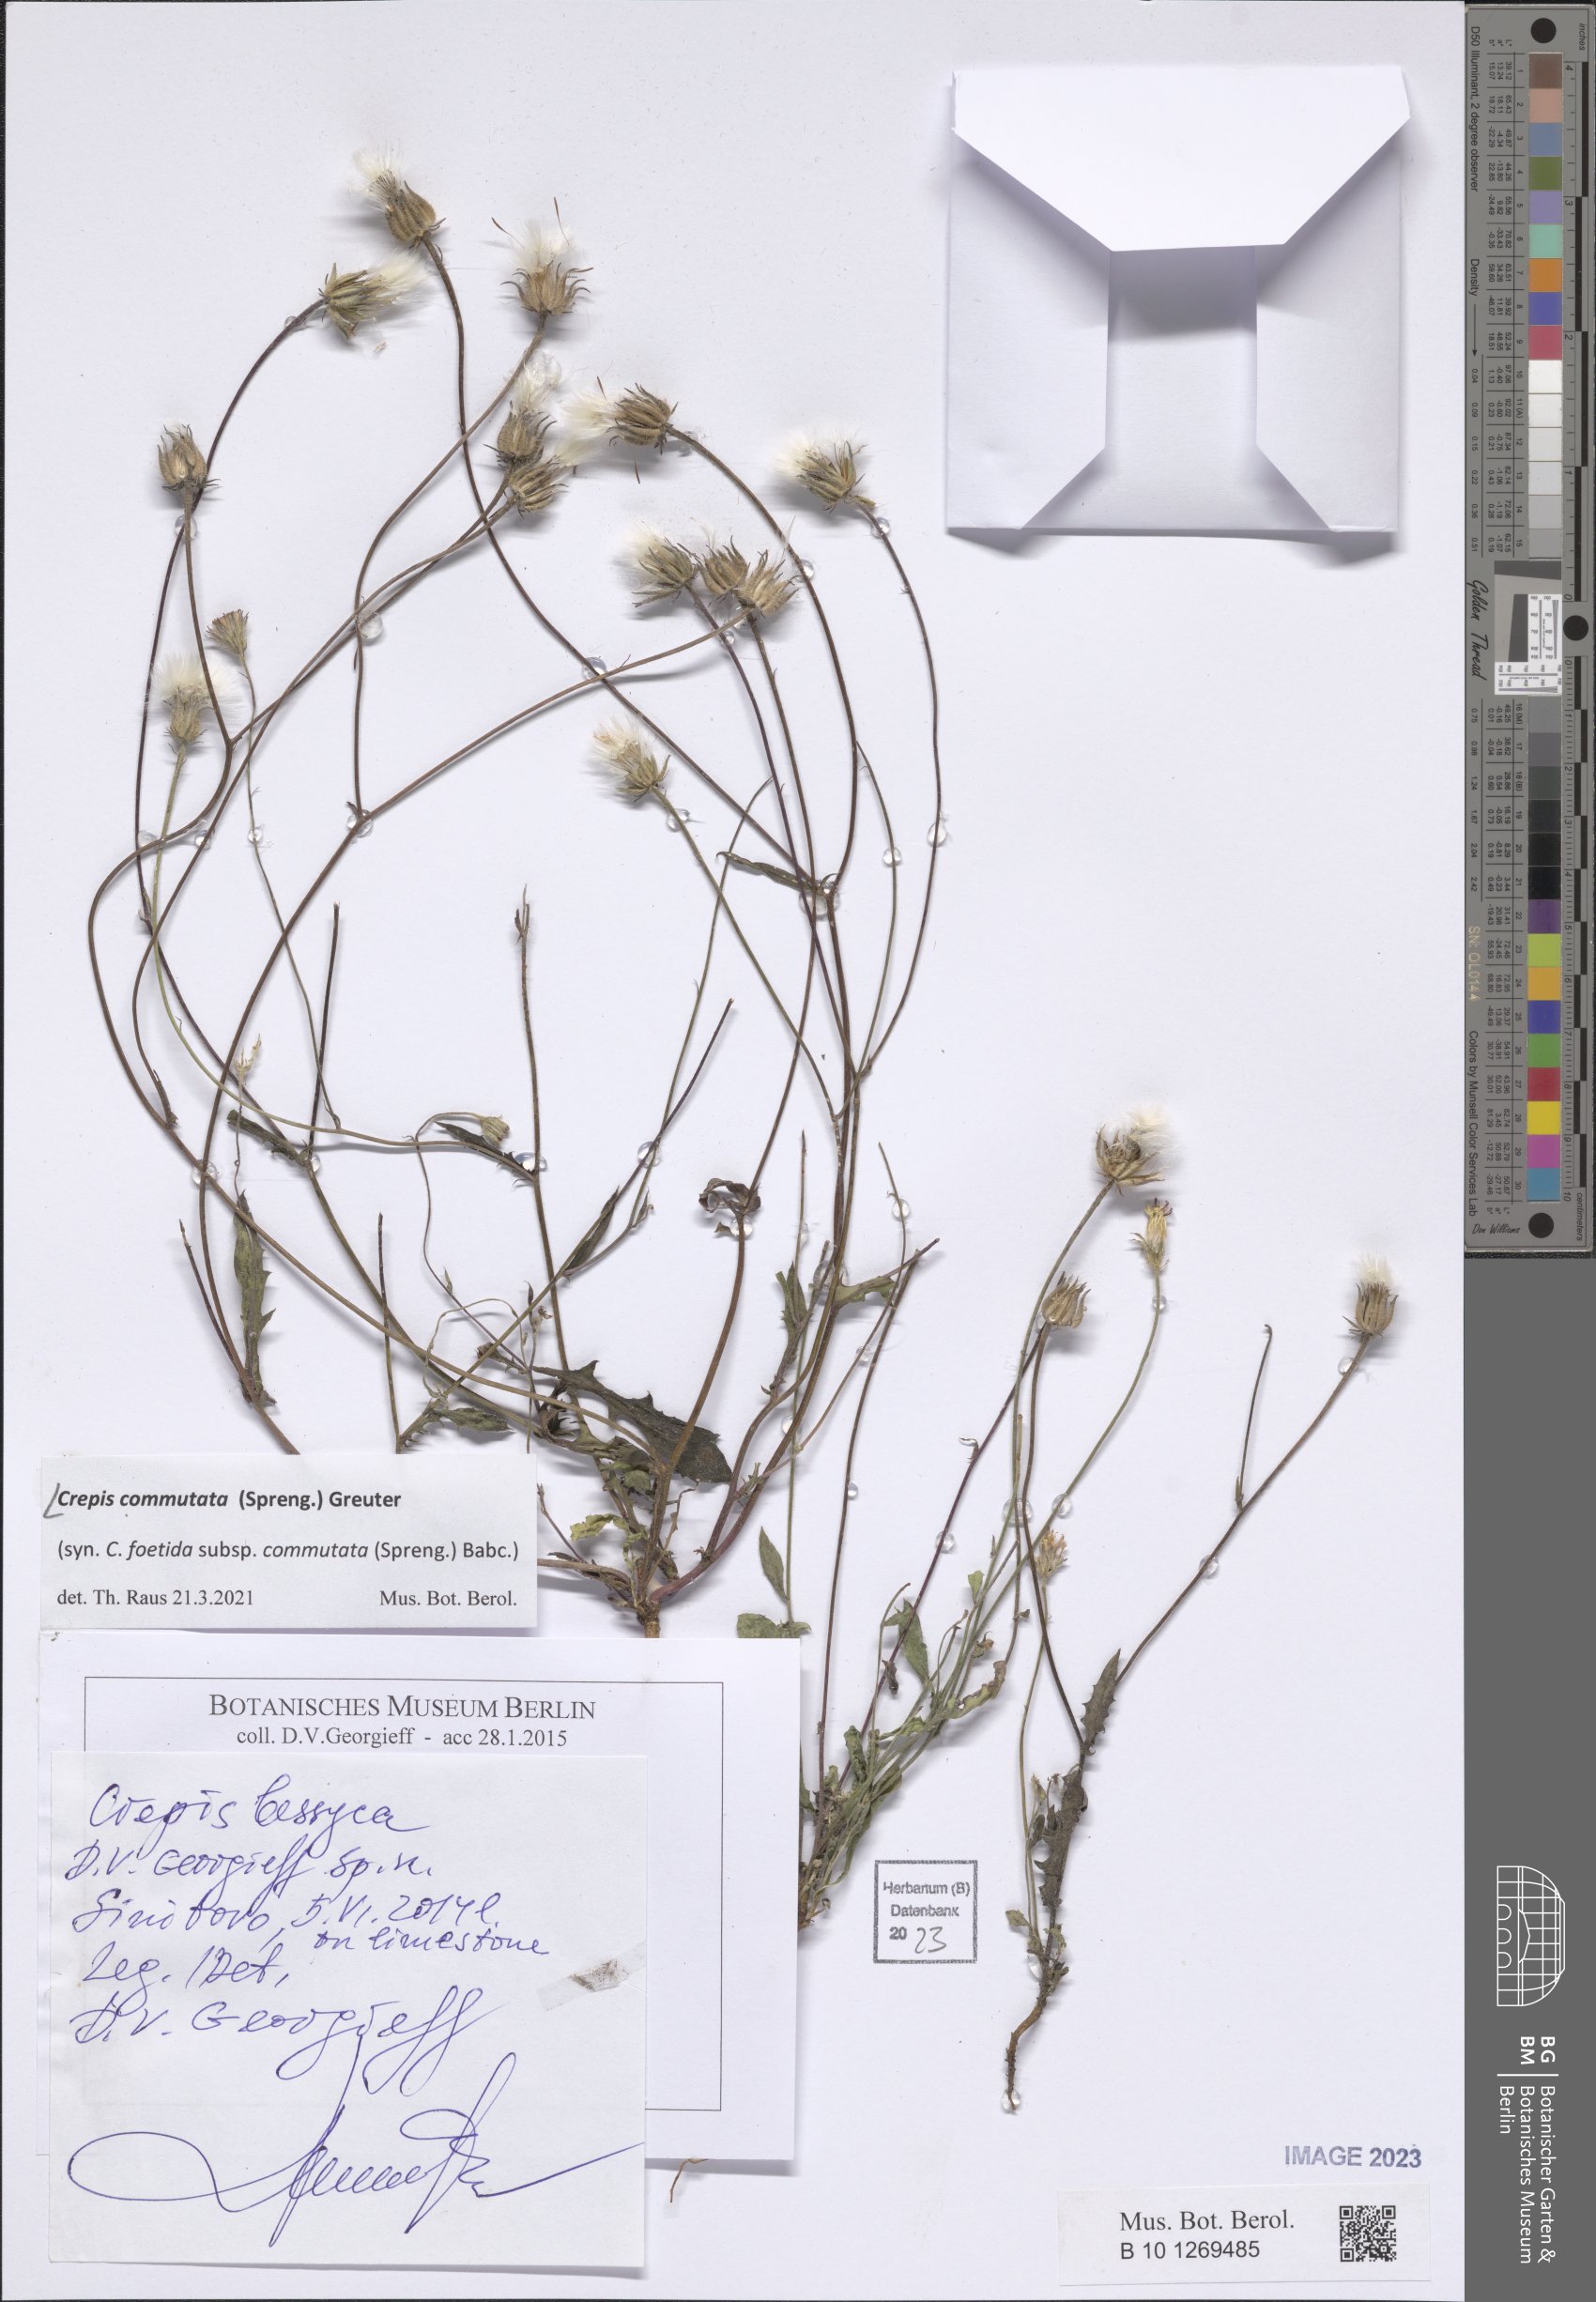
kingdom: Plantae
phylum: Tracheophyta
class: Magnoliopsida
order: Asterales
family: Asteraceae
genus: Crepis
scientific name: Crepis commutata
